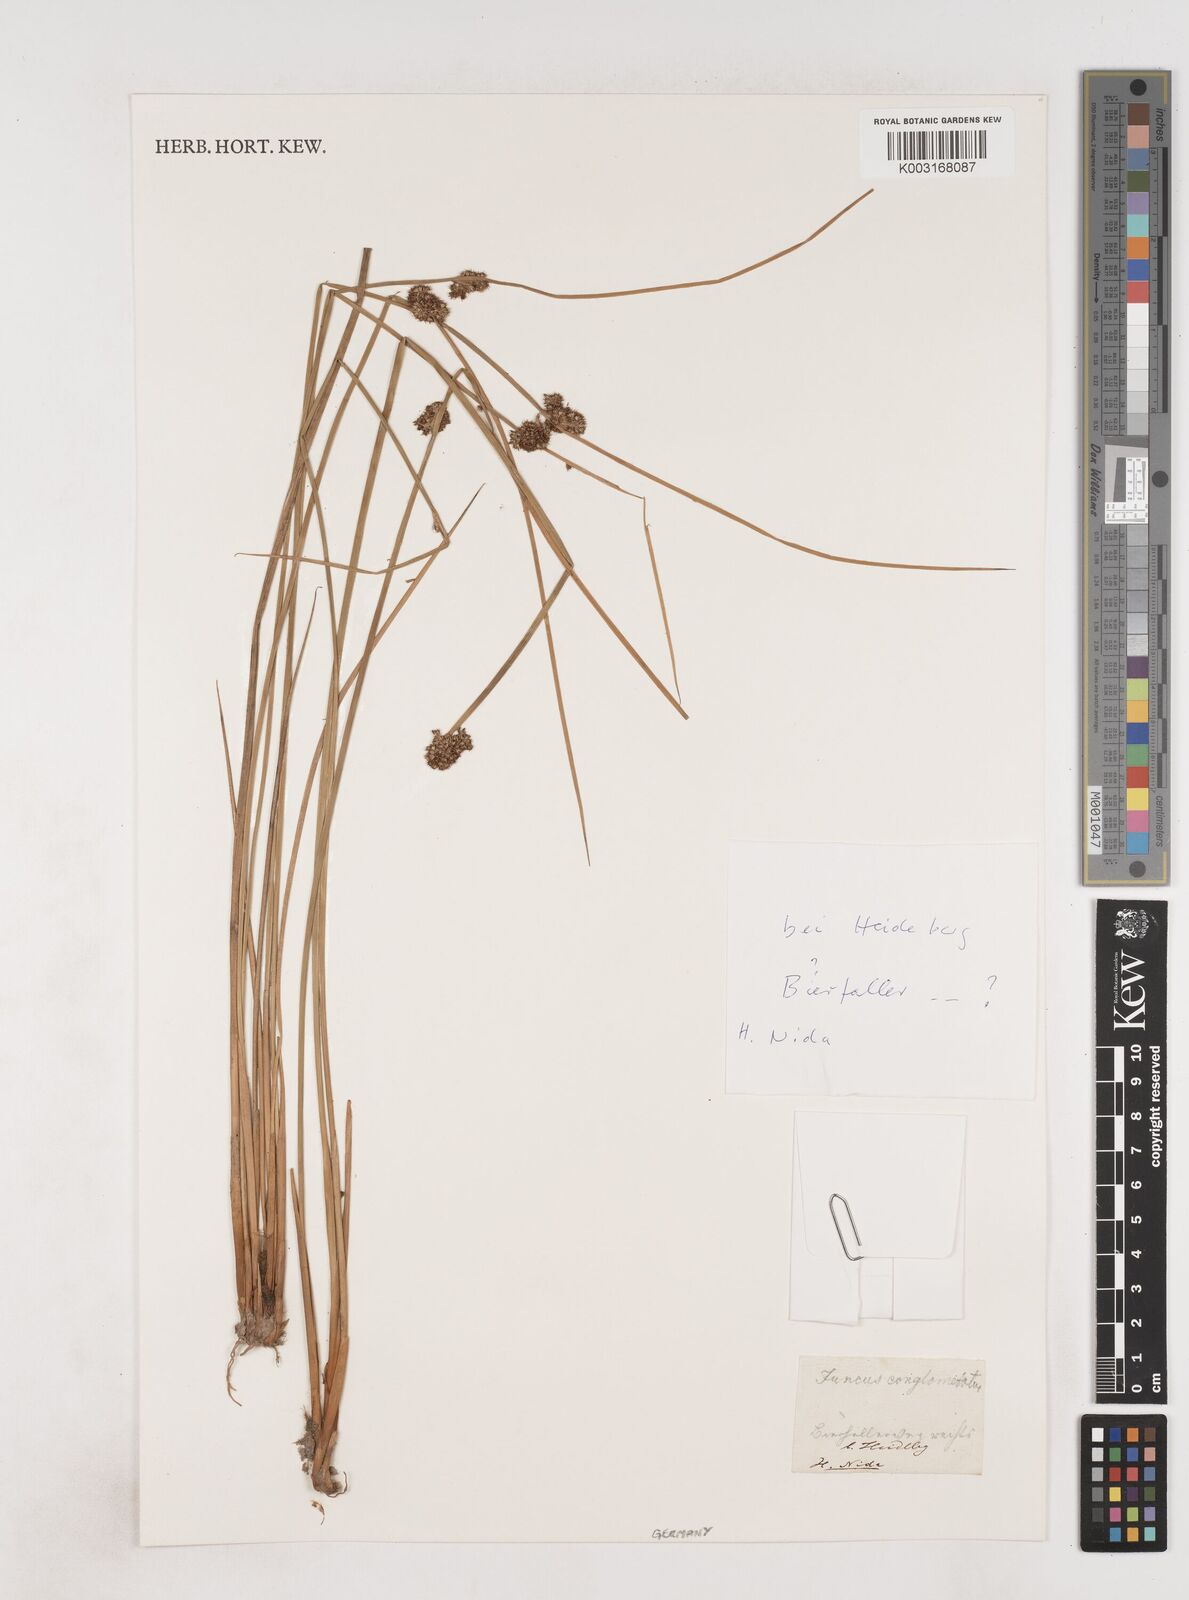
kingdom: Plantae
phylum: Tracheophyta
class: Liliopsida
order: Poales
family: Juncaceae
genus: Juncus
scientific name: Juncus conglomeratus
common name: Compact rush
